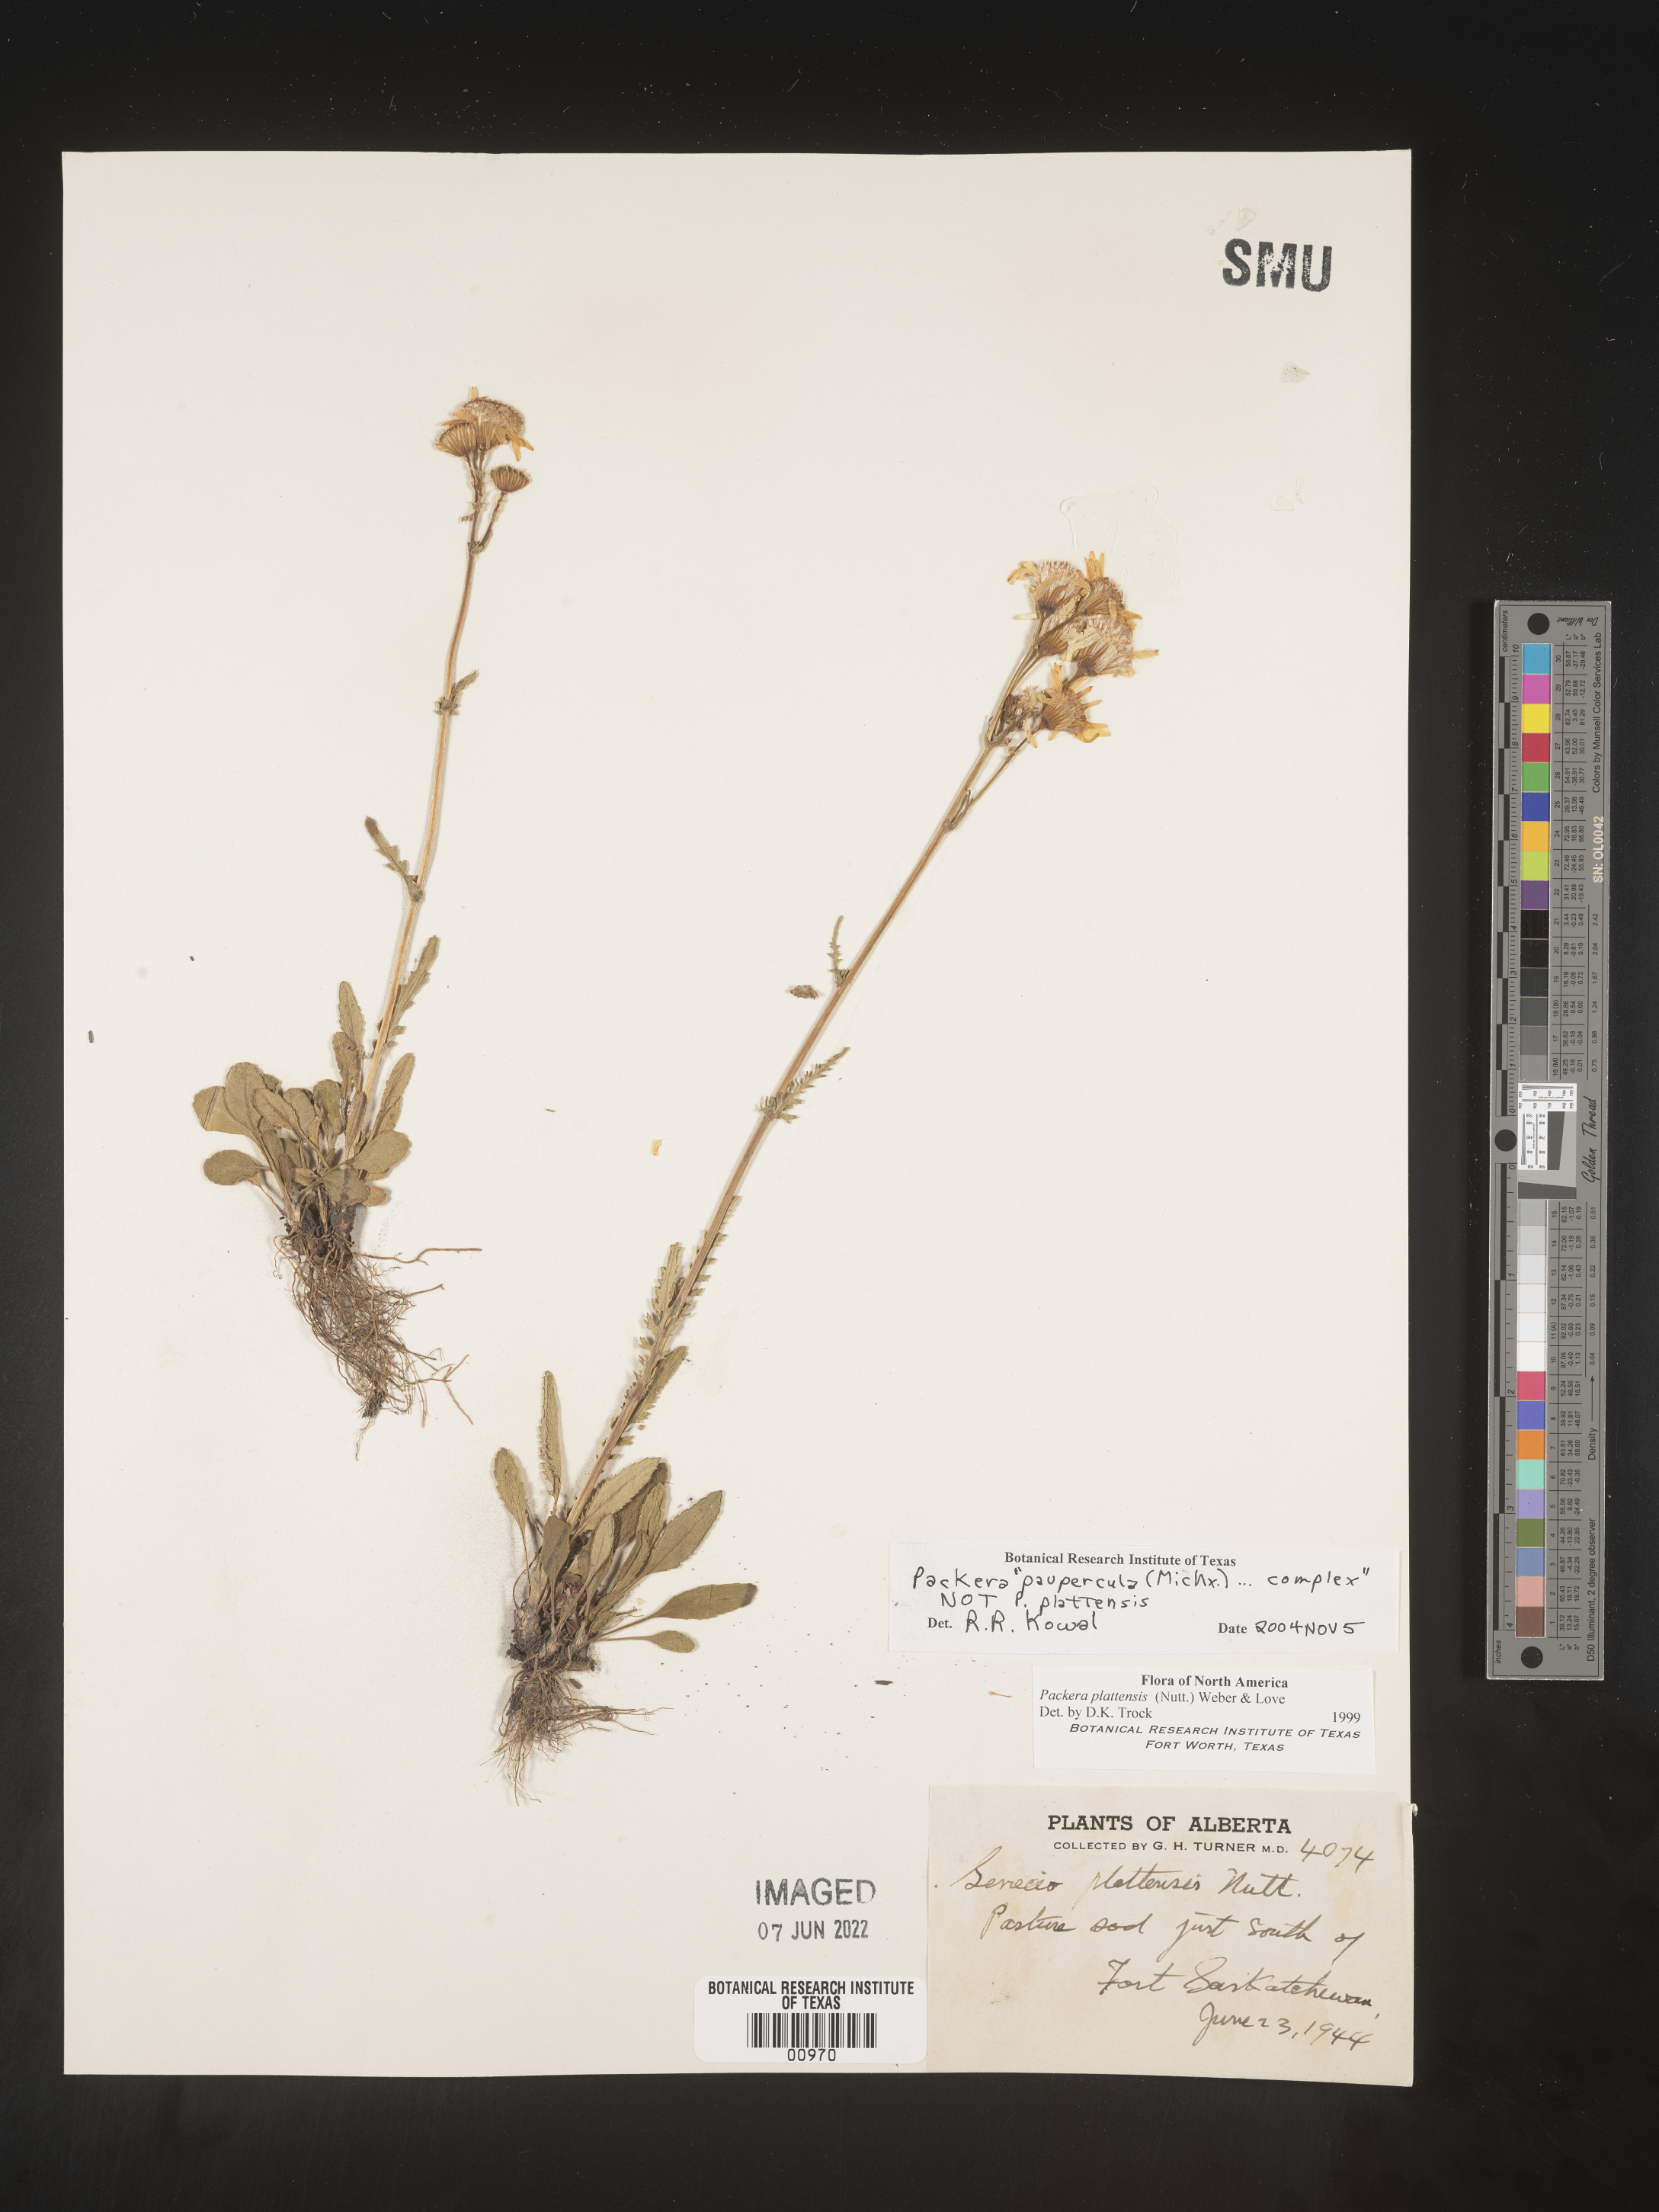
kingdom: Plantae
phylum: Tracheophyta
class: Magnoliopsida
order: Asterales
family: Asteraceae
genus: Packera
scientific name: Packera paupercula
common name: Balsam groundsel
